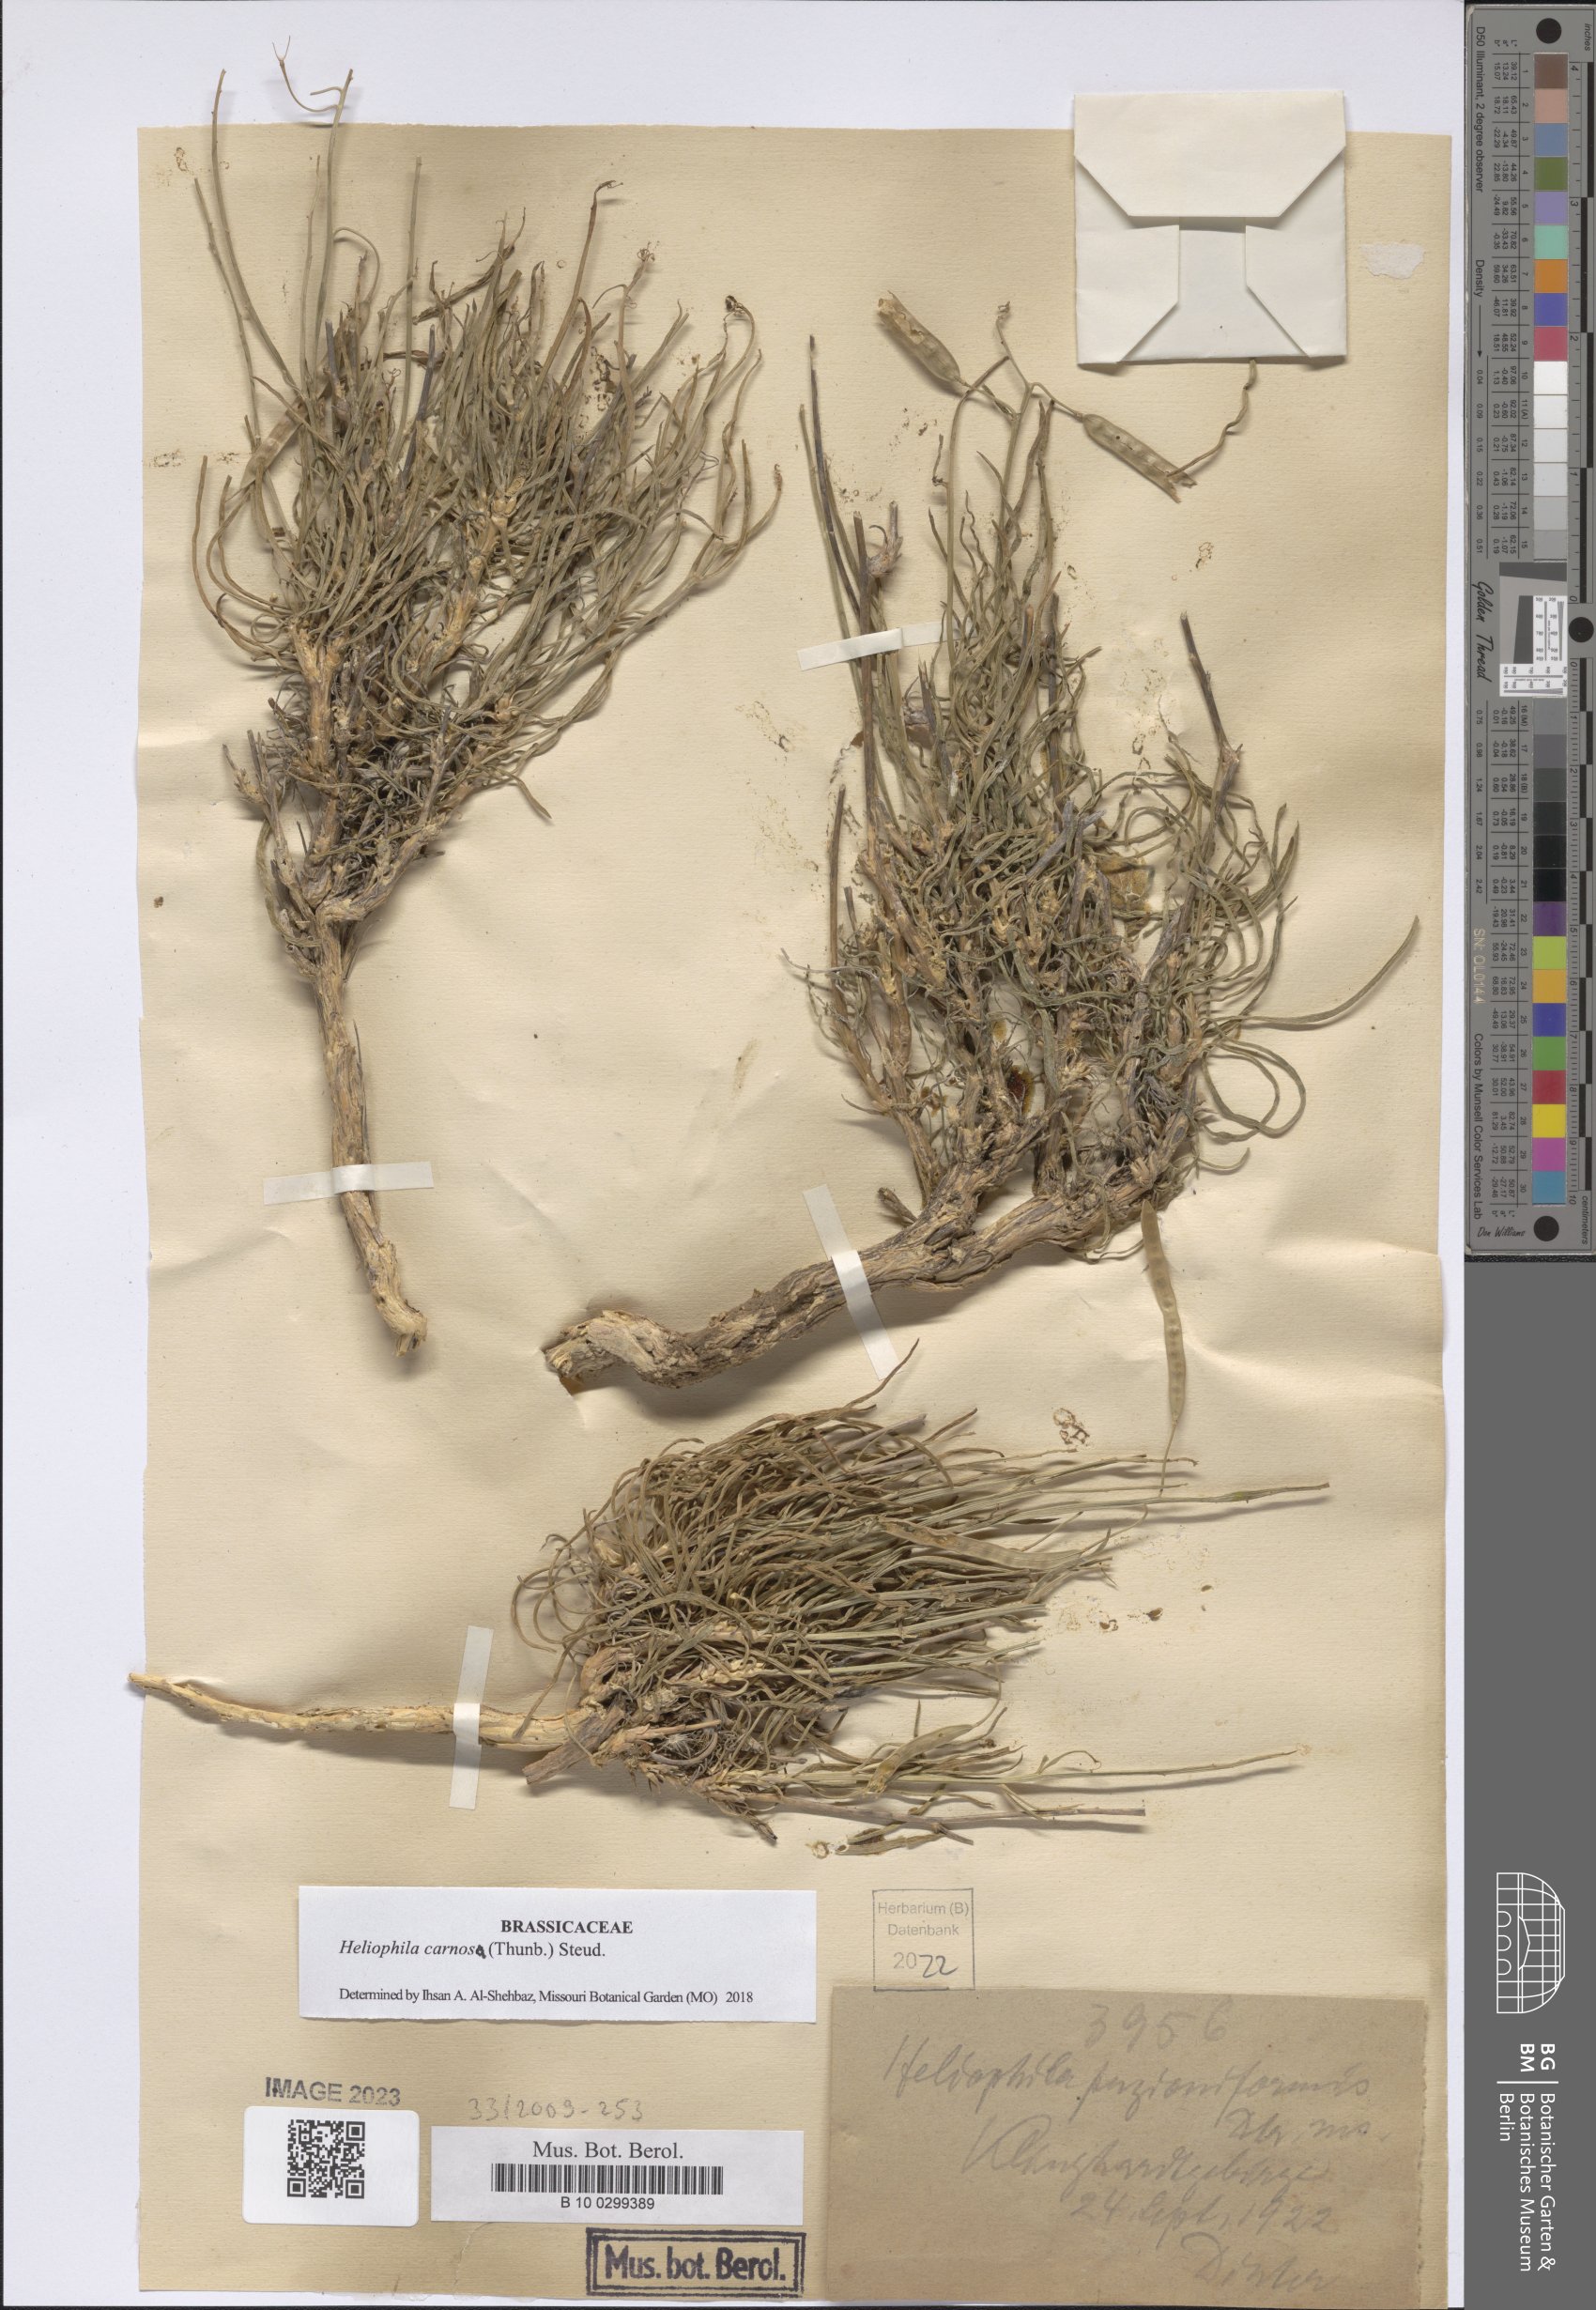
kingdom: Plantae
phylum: Tracheophyta
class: Magnoliopsida
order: Brassicales
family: Brassicaceae
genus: Heliophila
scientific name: Heliophila carnosa
